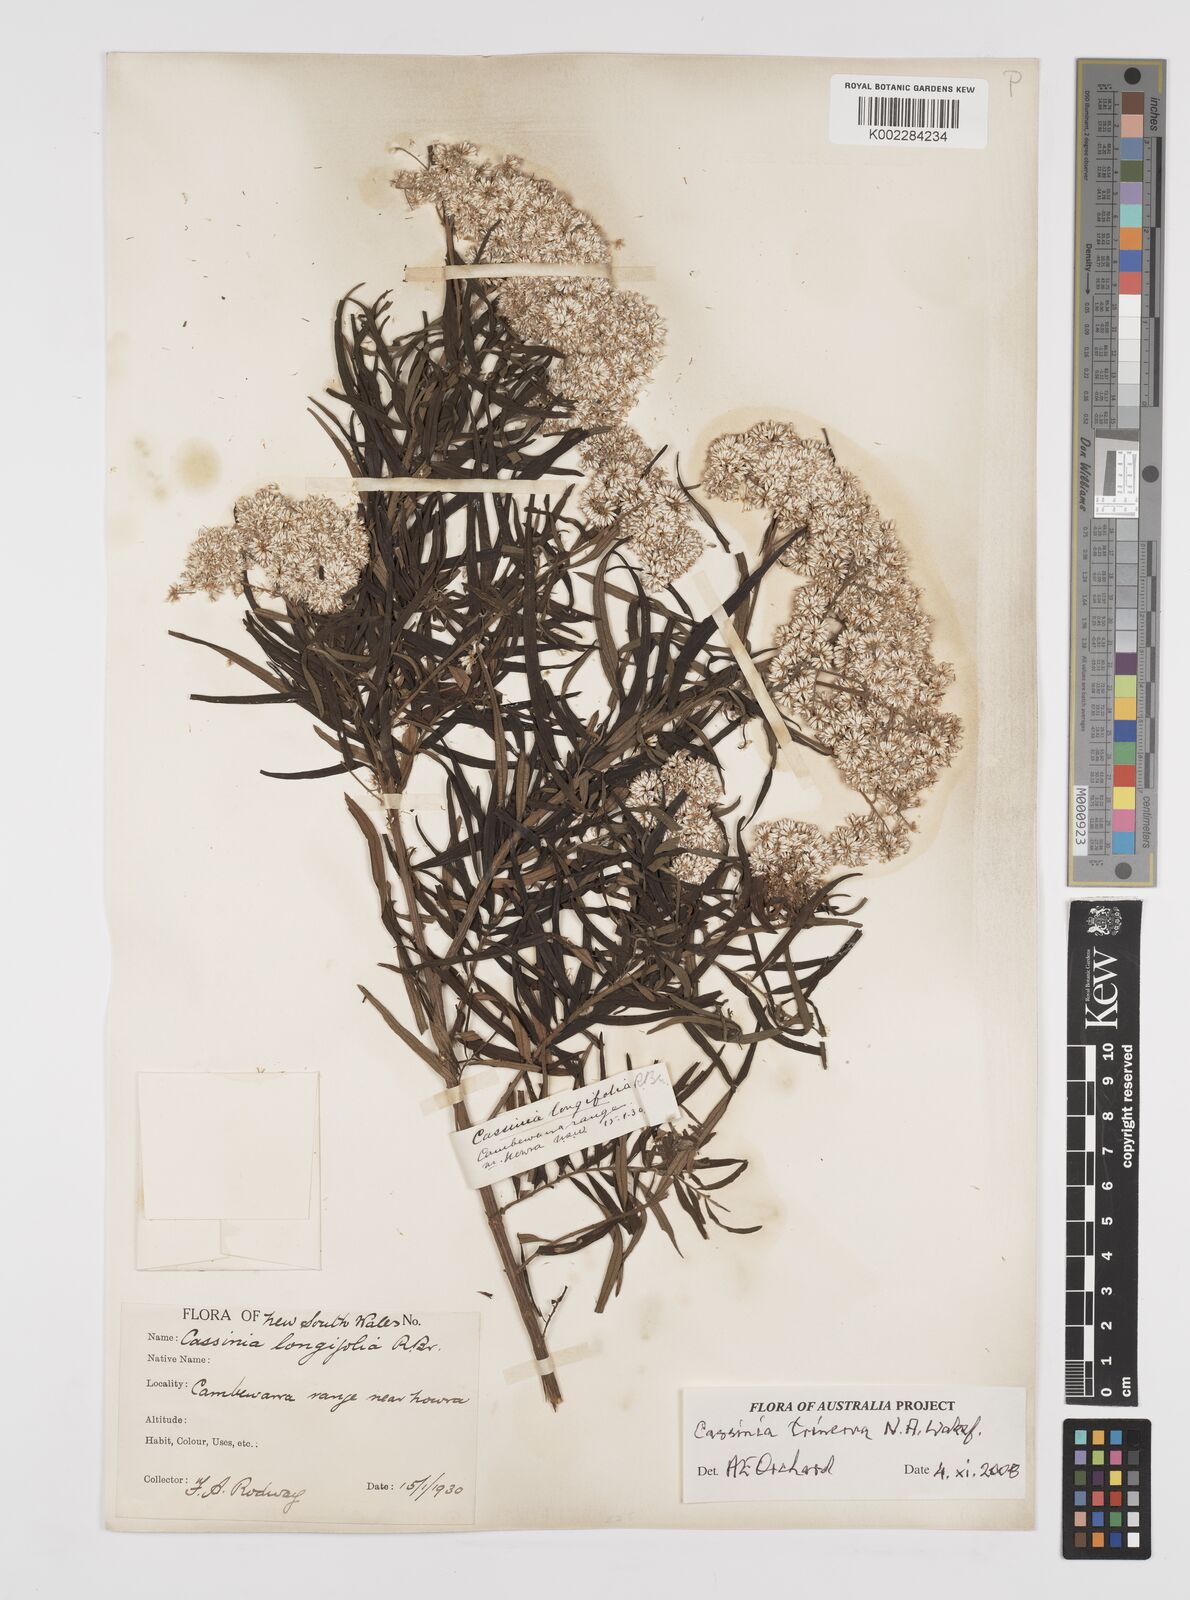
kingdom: Plantae
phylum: Tracheophyta
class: Magnoliopsida
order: Asterales
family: Asteraceae
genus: Cassinia
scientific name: Cassinia trinerva
